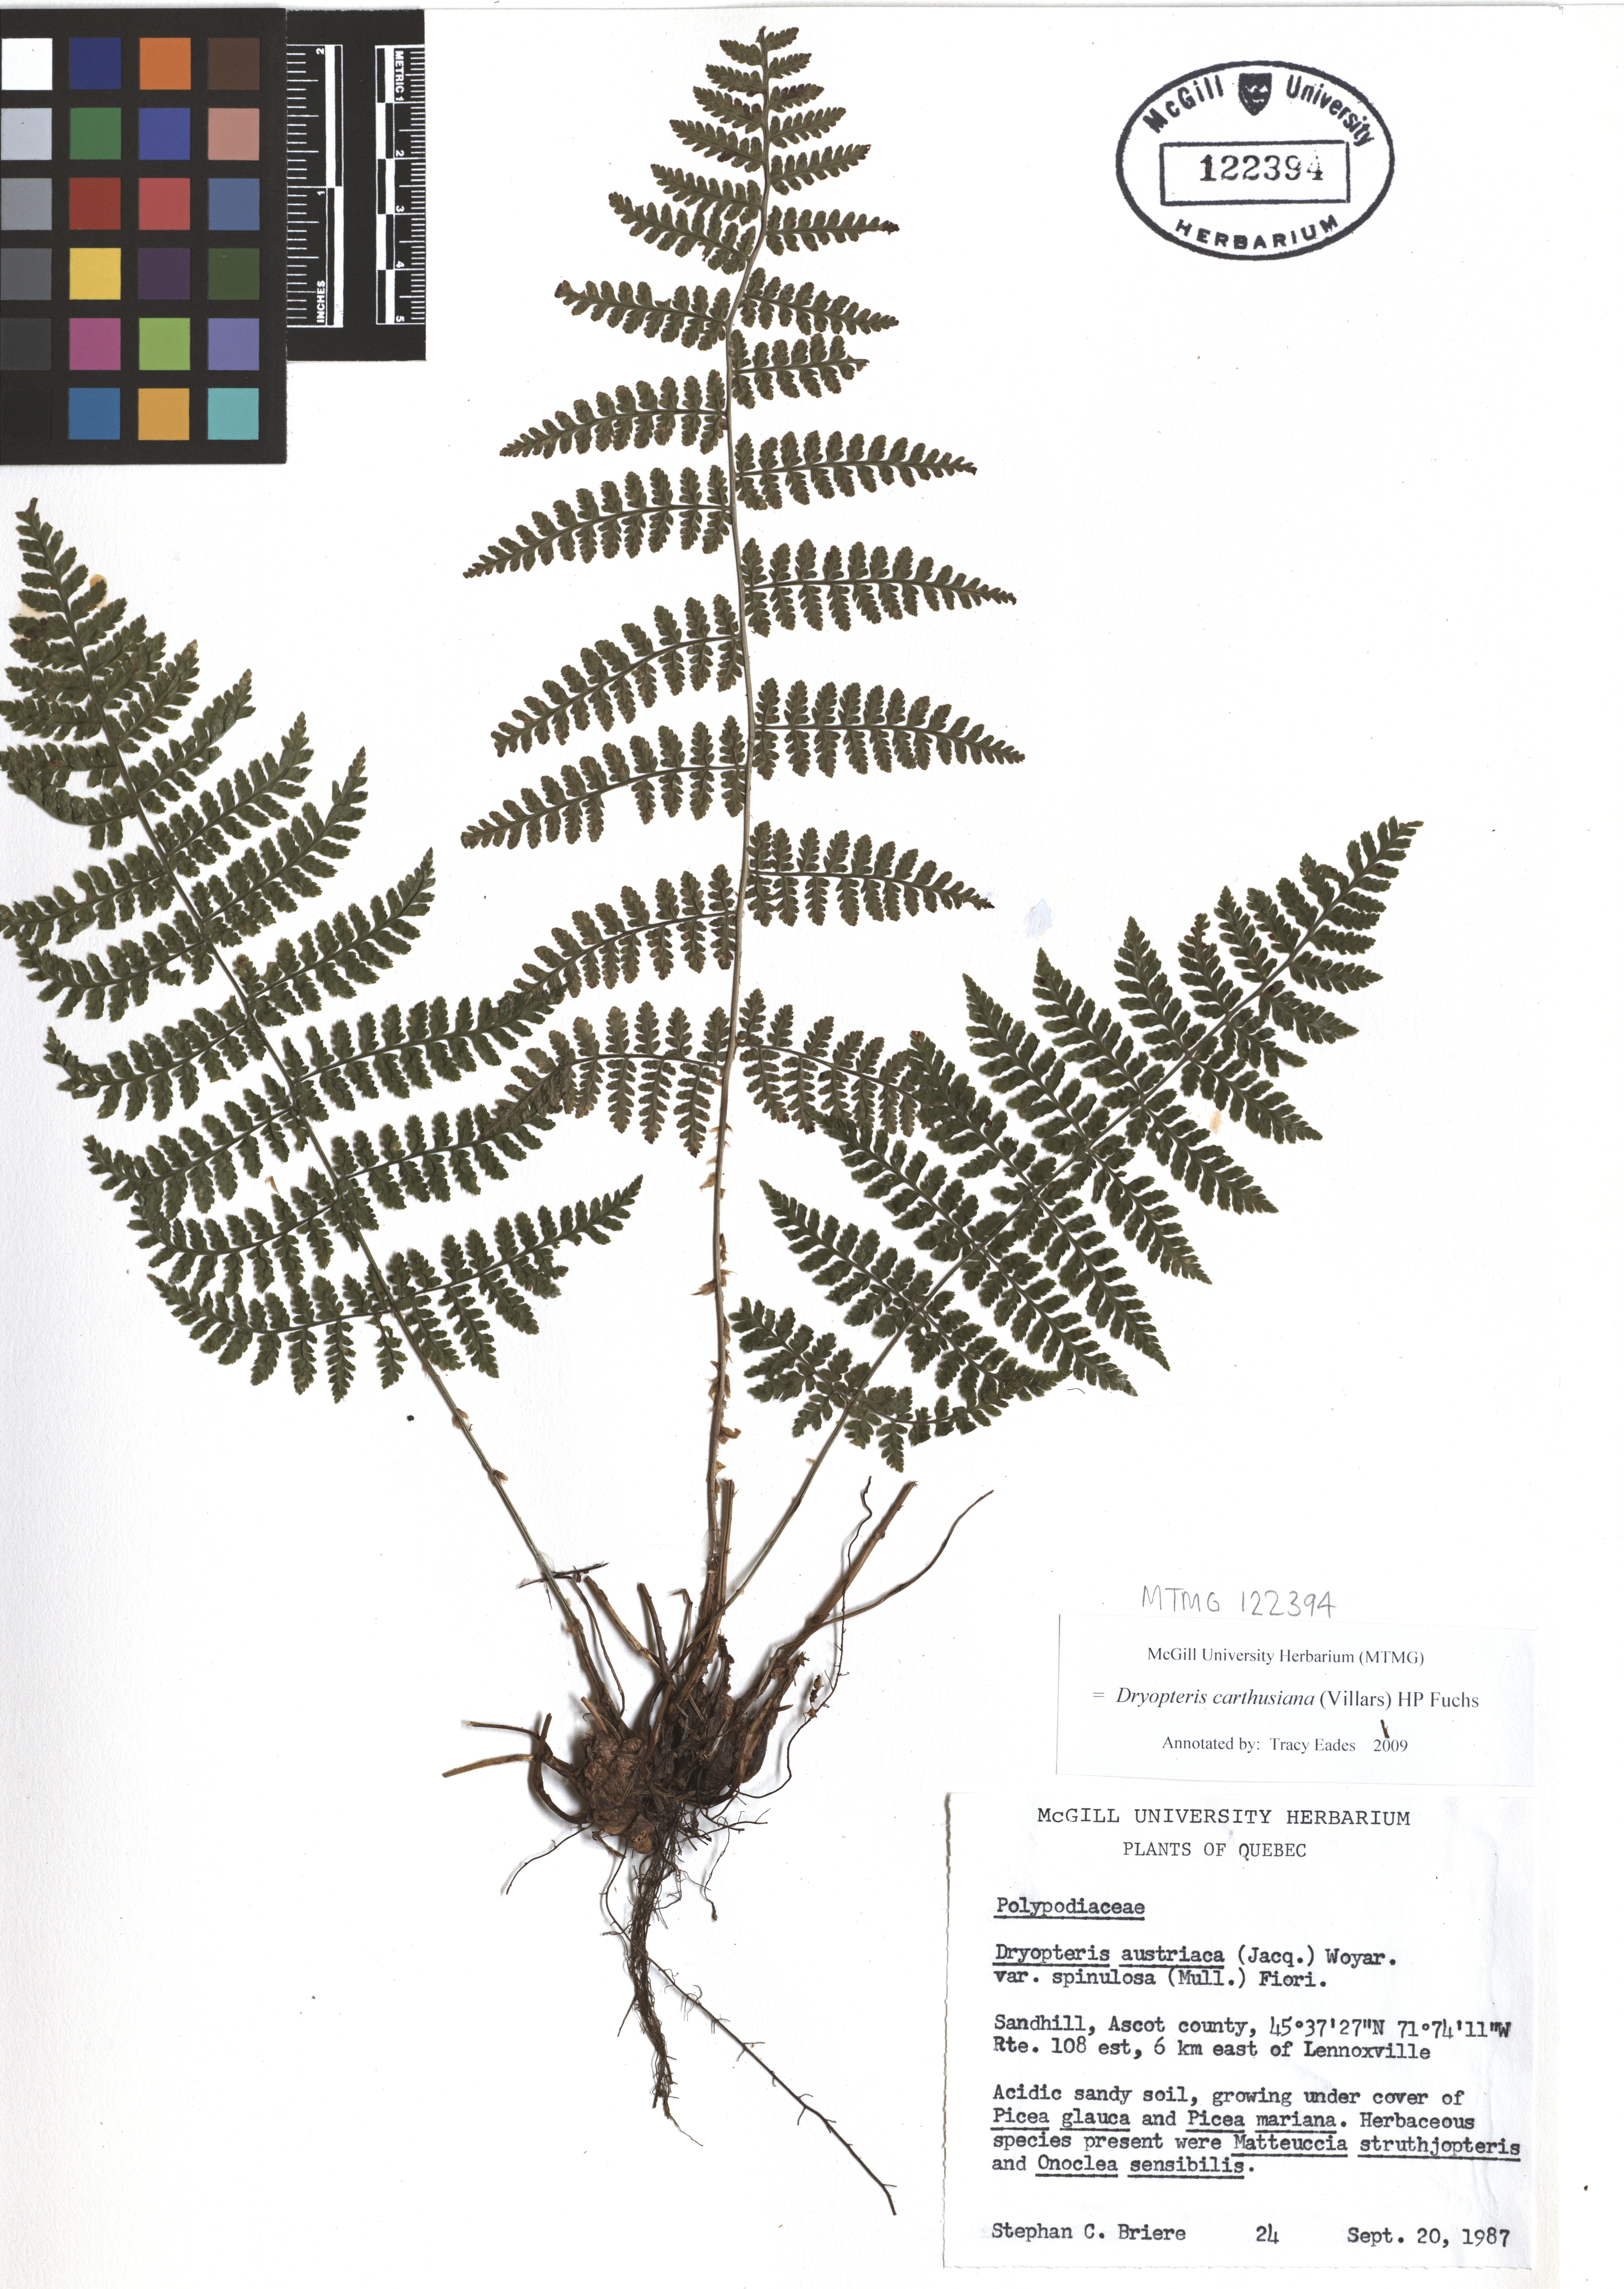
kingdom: Plantae
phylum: Tracheophyta
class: Polypodiopsida
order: Polypodiales
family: Dryopteridaceae
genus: Dryopteris
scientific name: Dryopteris carthusiana
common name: Narrow buckler-fern
